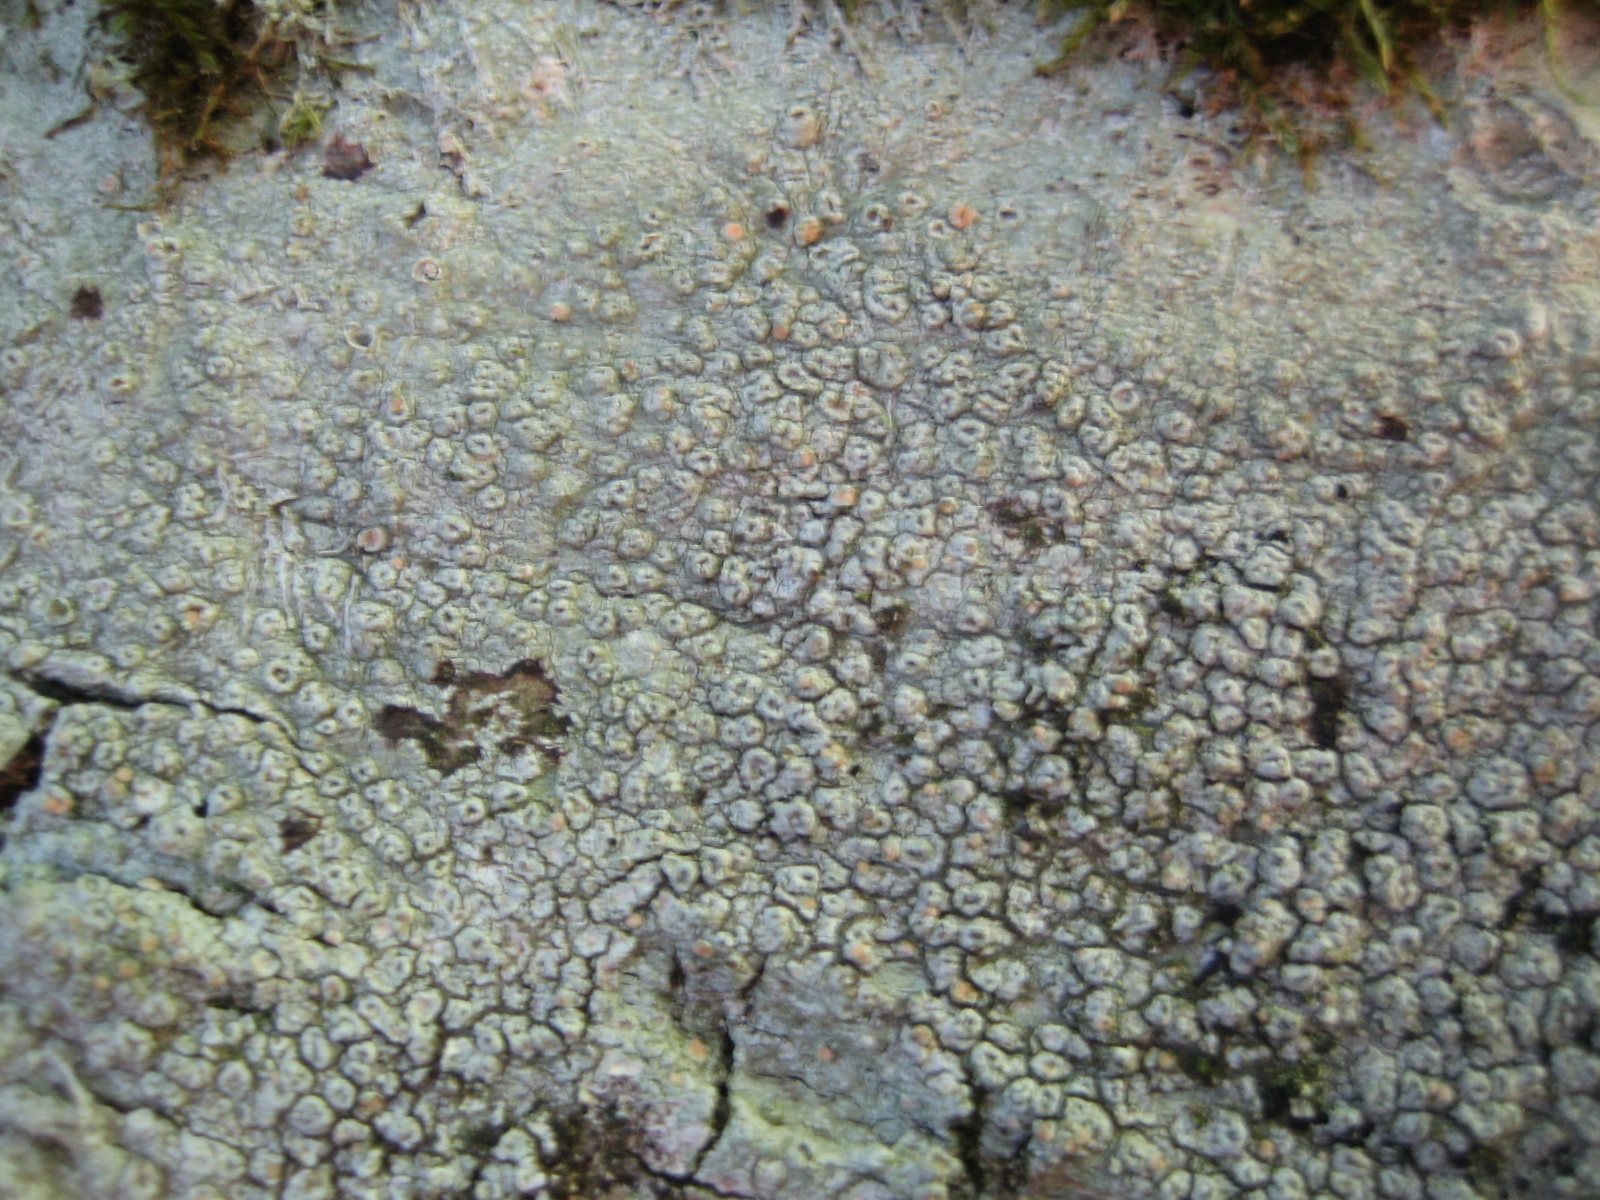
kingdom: Fungi
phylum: Ascomycota
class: Lecanoromycetes
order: Pertusariales
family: Pertusariaceae
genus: Pertusaria
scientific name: Pertusaria hymenea
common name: åben prikvortelav
